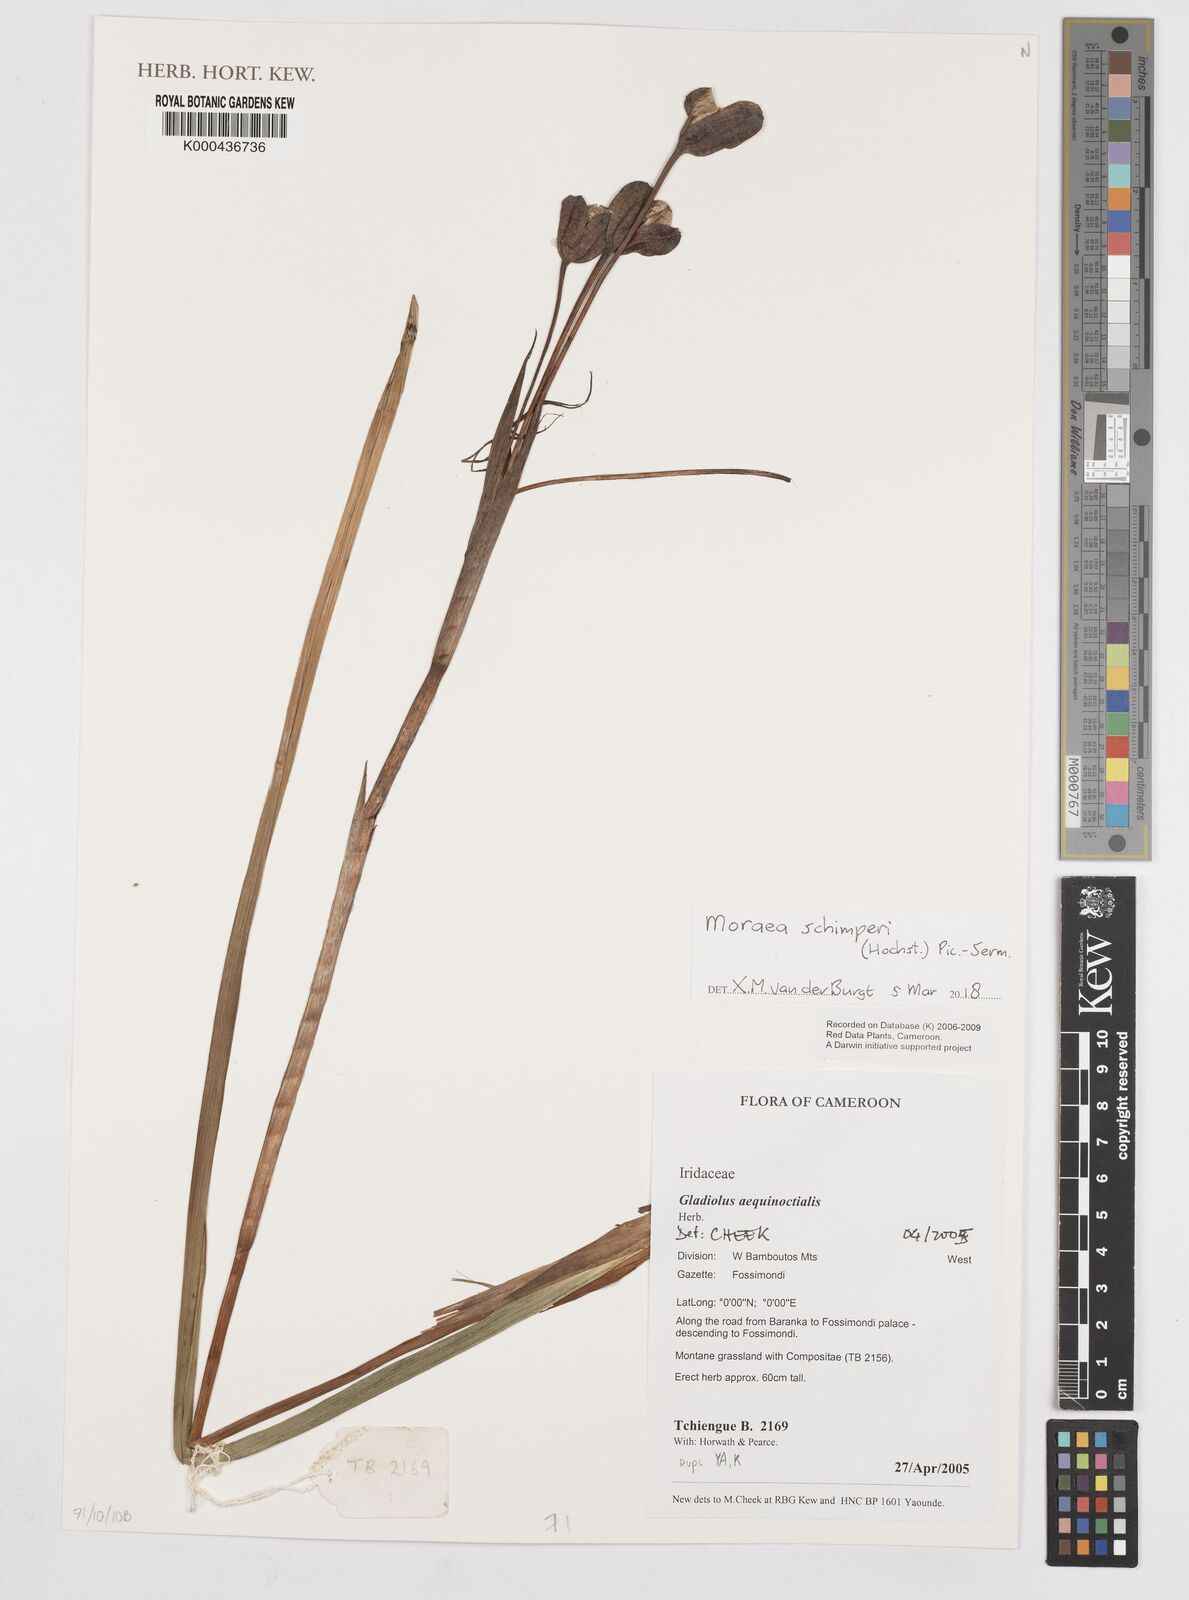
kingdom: Plantae
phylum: Tracheophyta
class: Liliopsida
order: Asparagales
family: Iridaceae
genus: Gladiolus
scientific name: Gladiolus aequinoctialis
